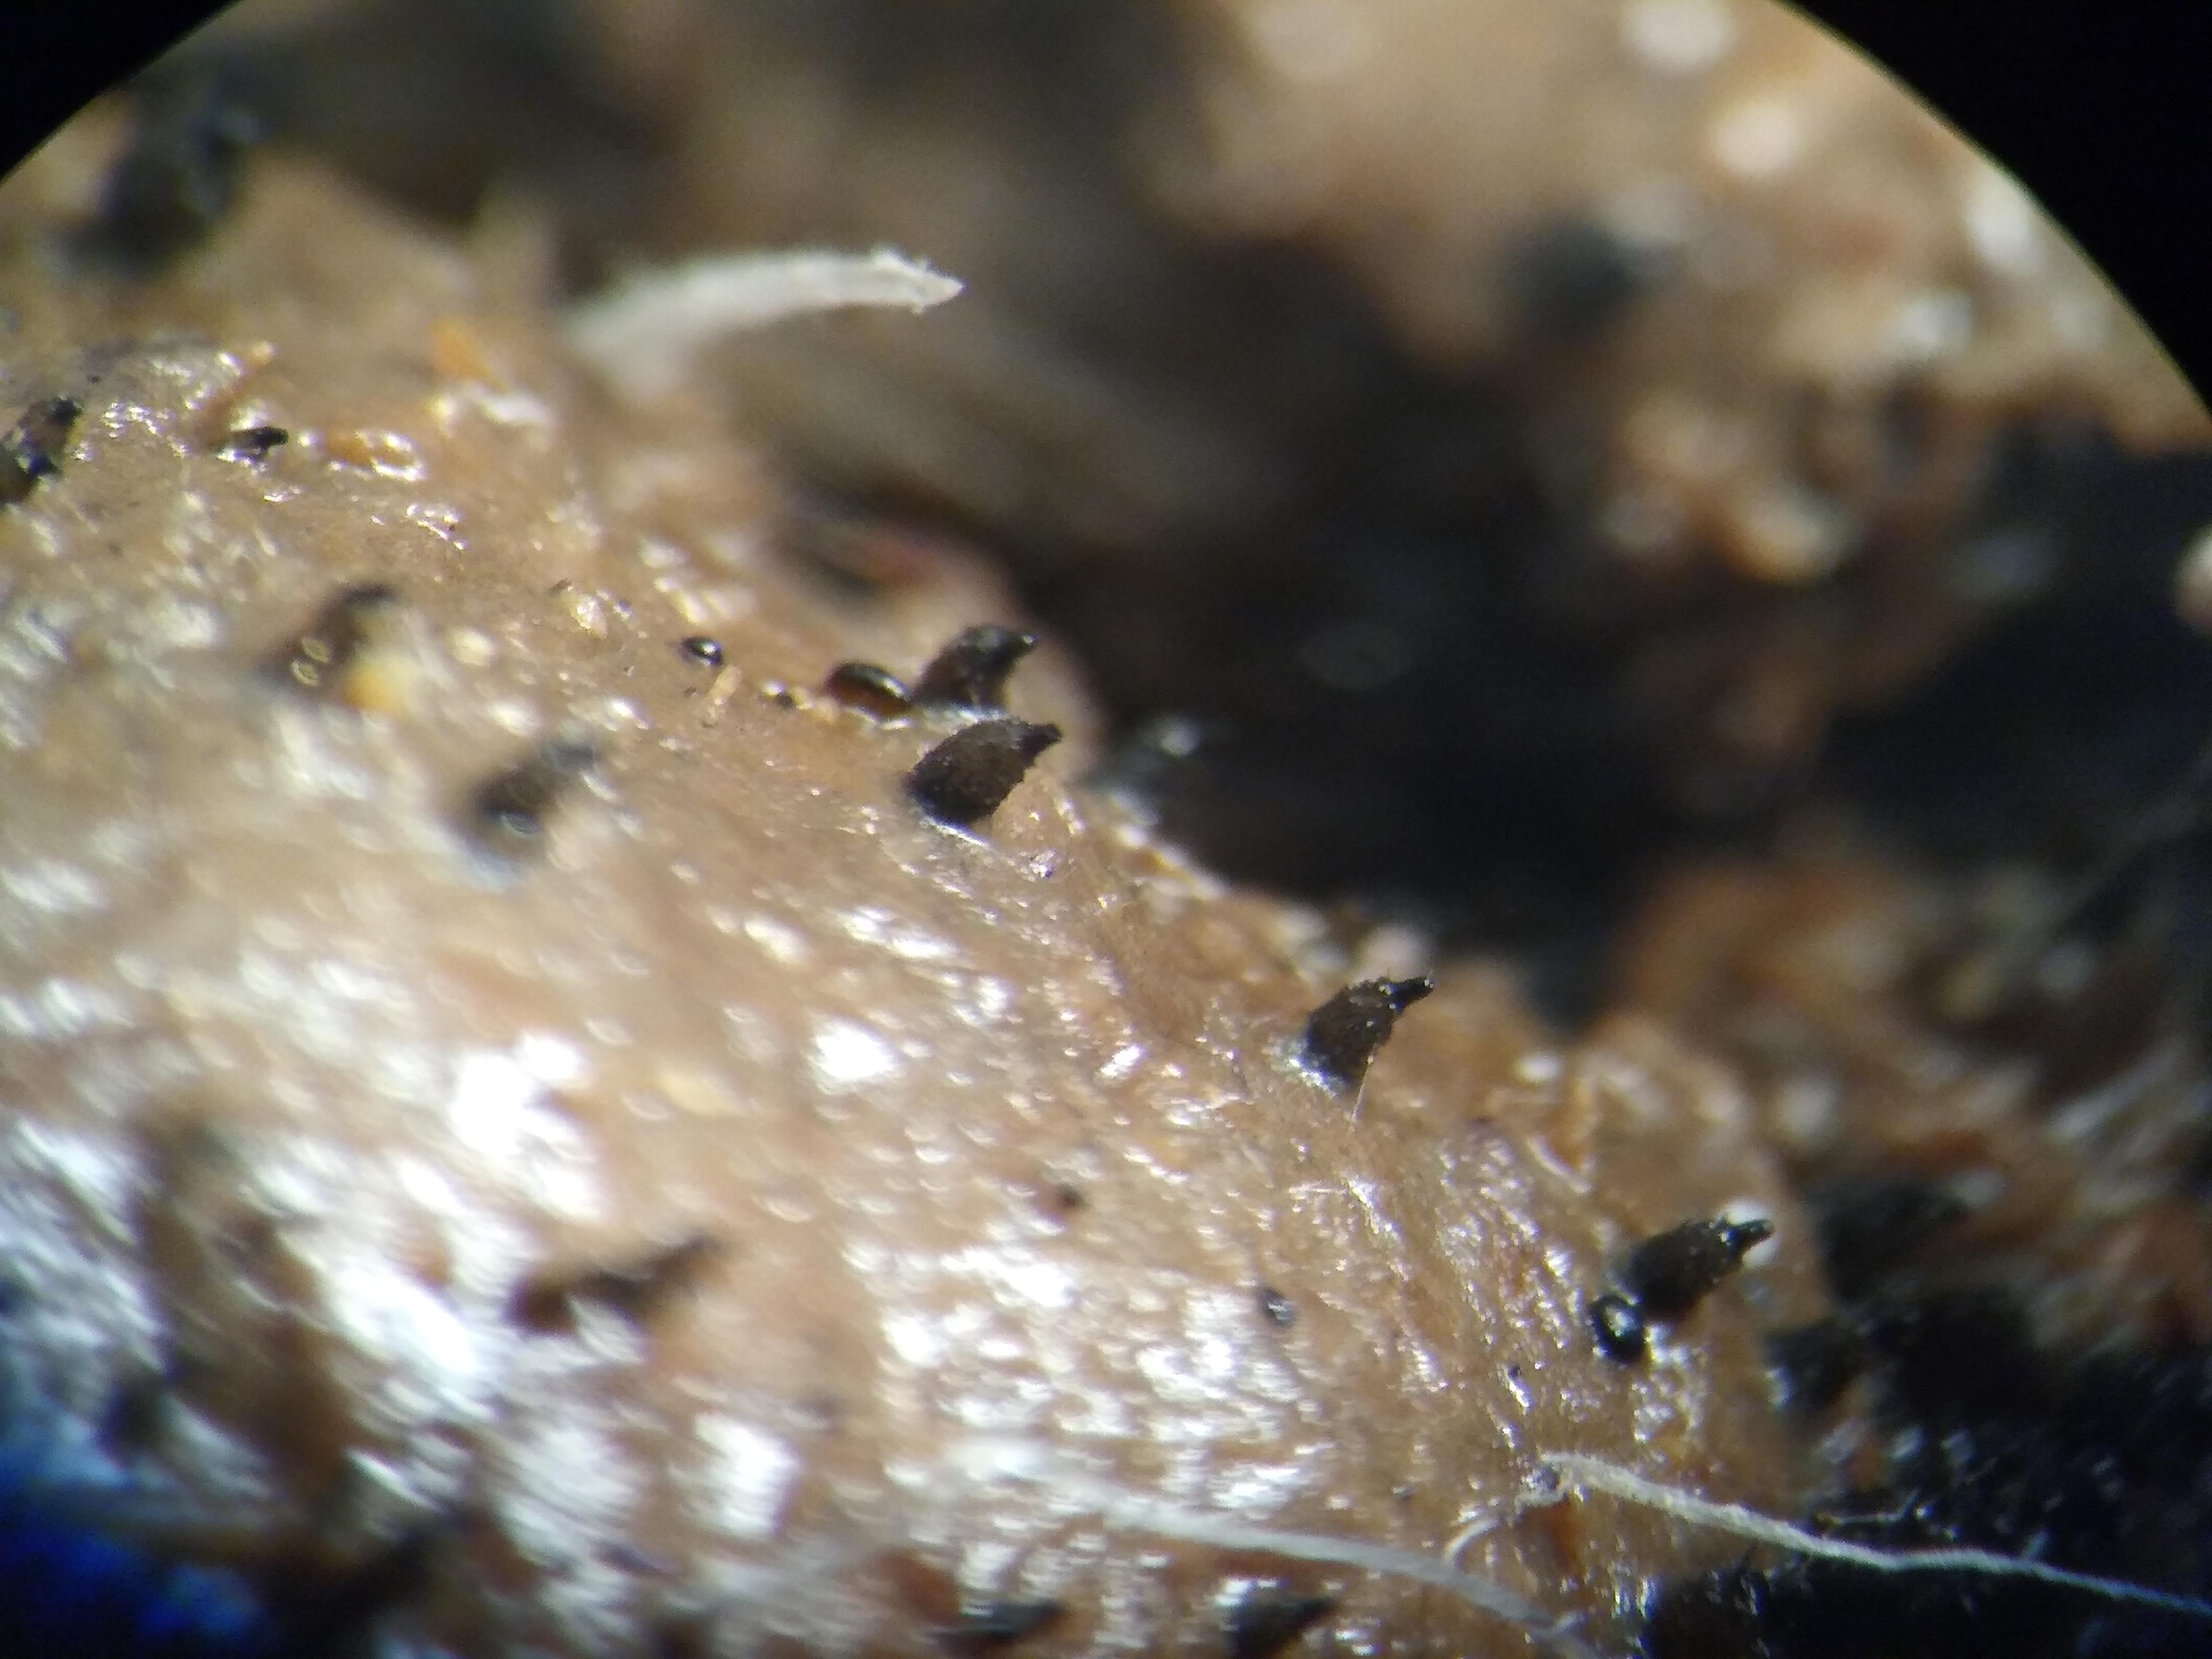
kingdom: Fungi
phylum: Ascomycota
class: Sordariomycetes
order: Sordariales
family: Podosporaceae
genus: Podospora
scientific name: Podospora
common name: kernesvamp
